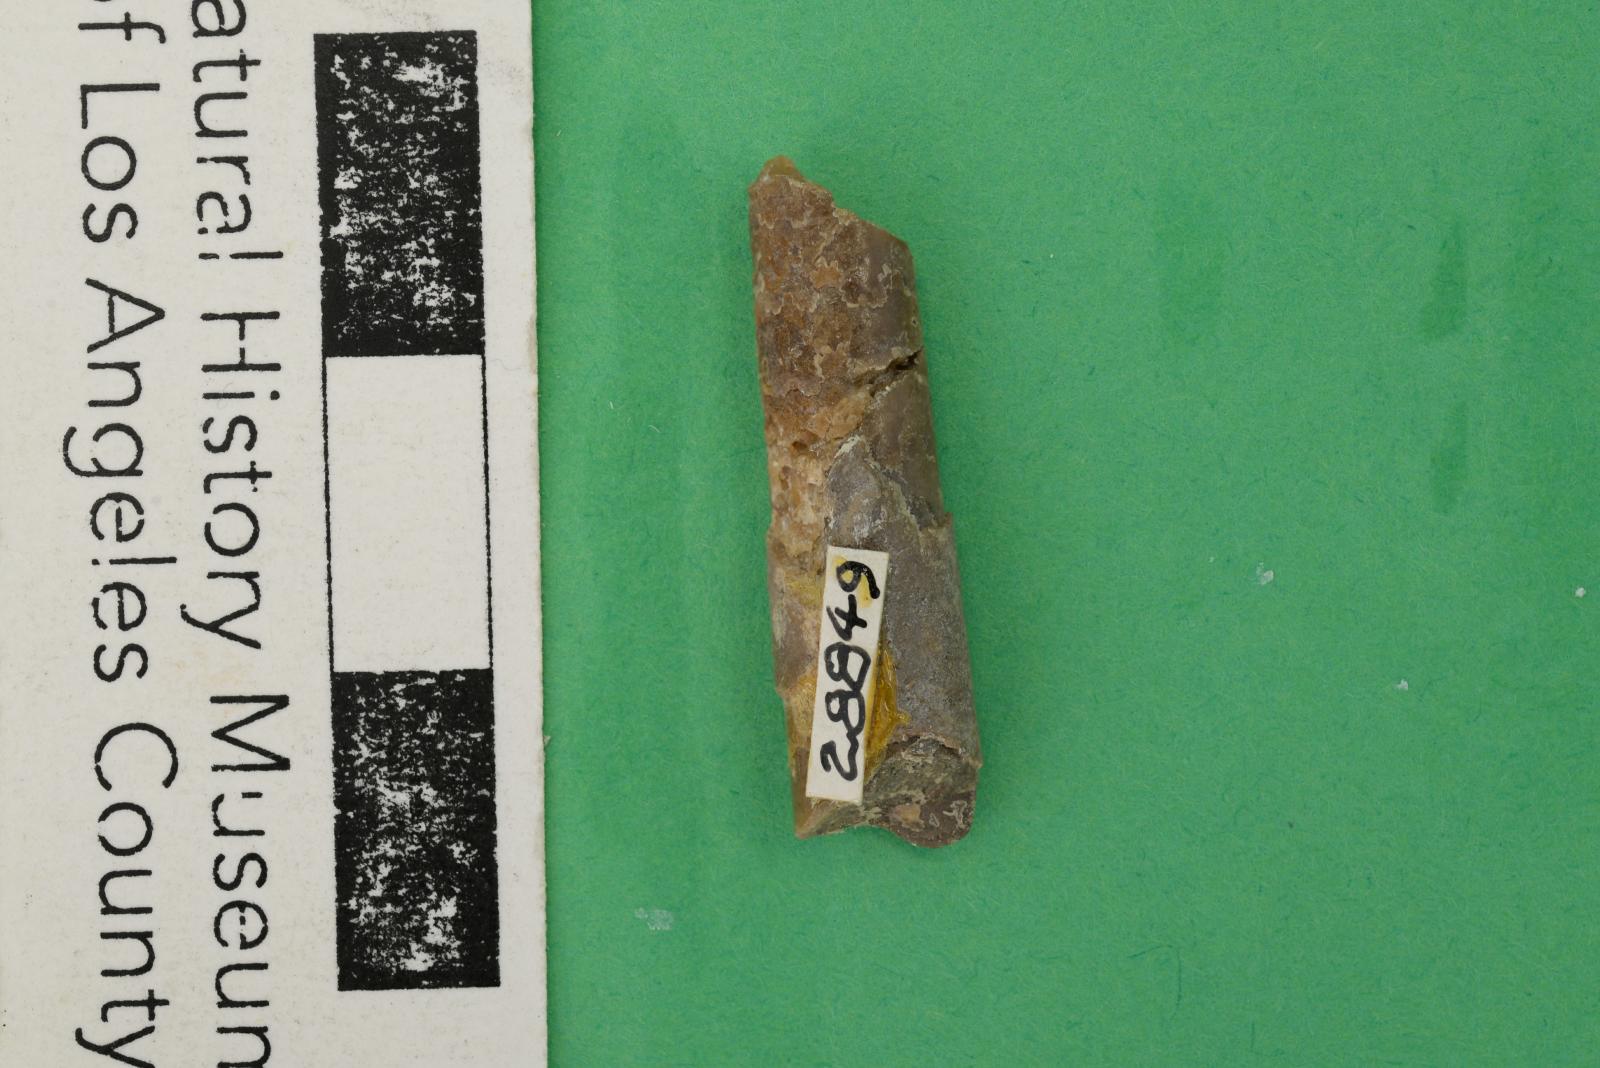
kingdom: Animalia
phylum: Mollusca
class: Cephalopoda
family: Baculitidae
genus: Sciponoceras
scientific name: Sciponoceras
